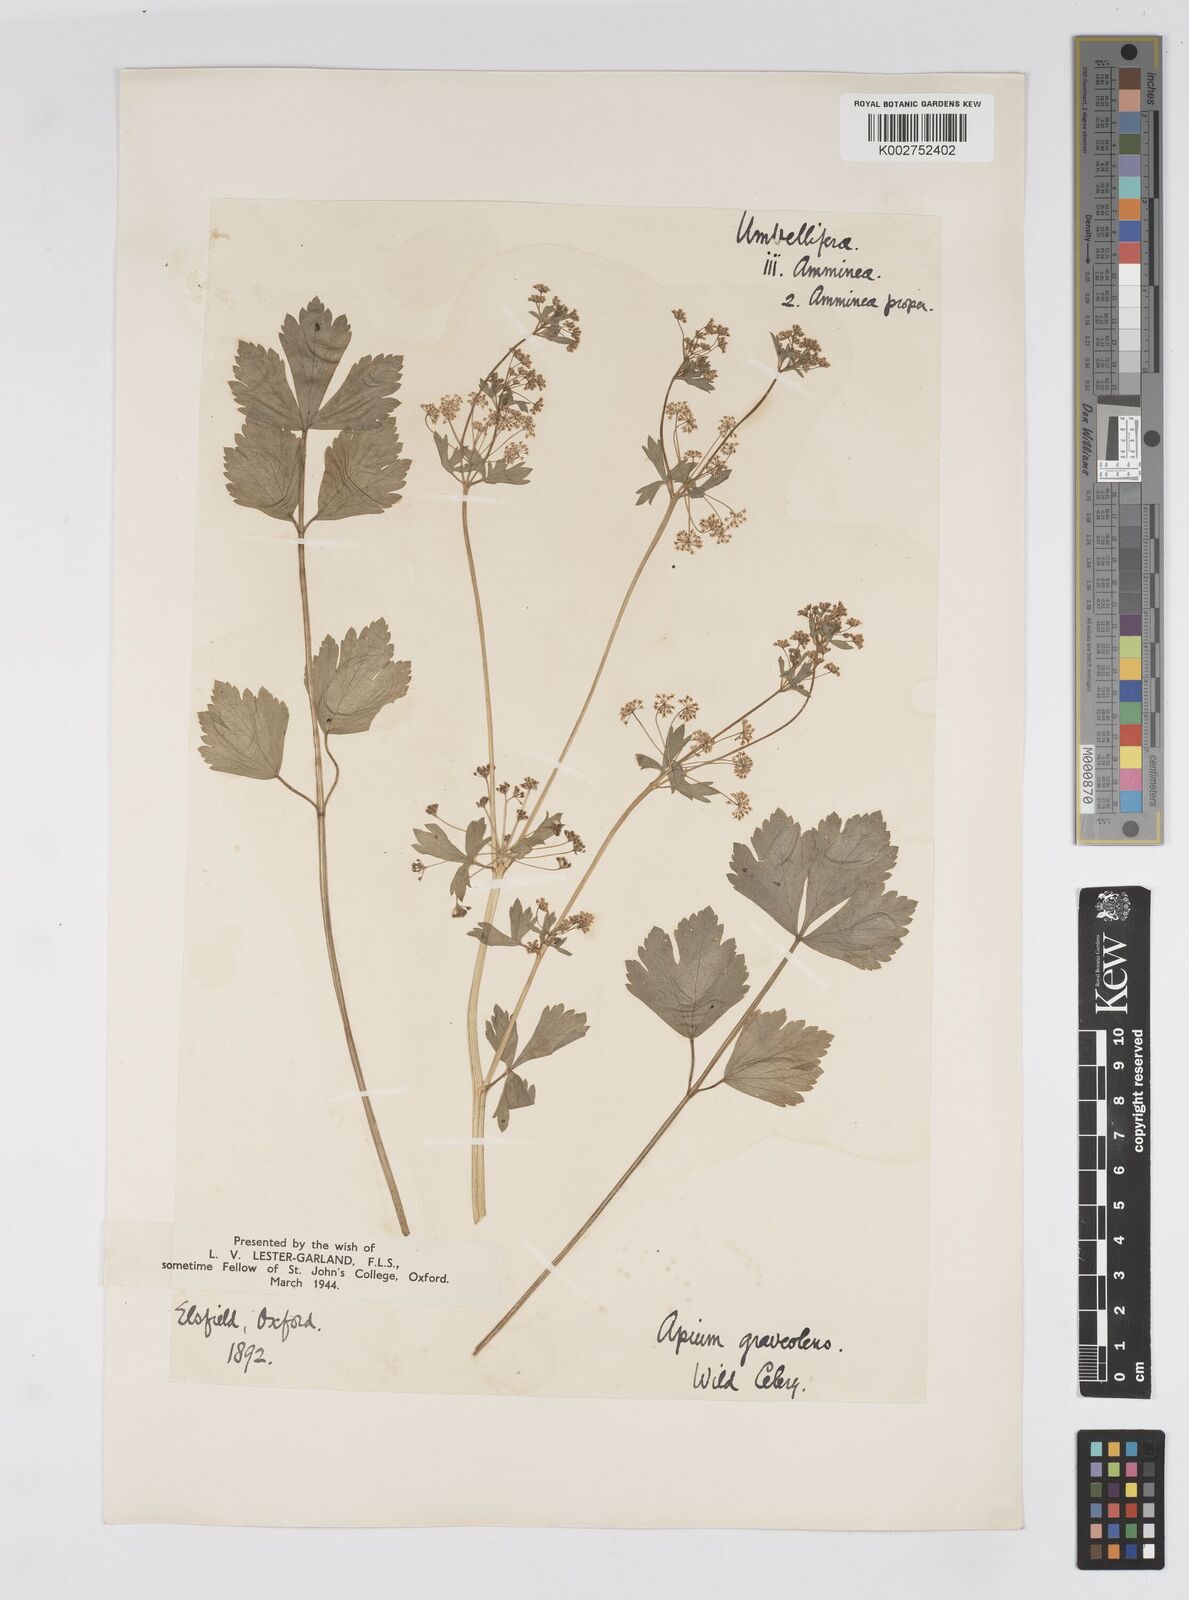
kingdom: Plantae
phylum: Tracheophyta
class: Magnoliopsida
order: Apiales
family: Apiaceae
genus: Apium
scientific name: Apium graveolens
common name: Wild celery
